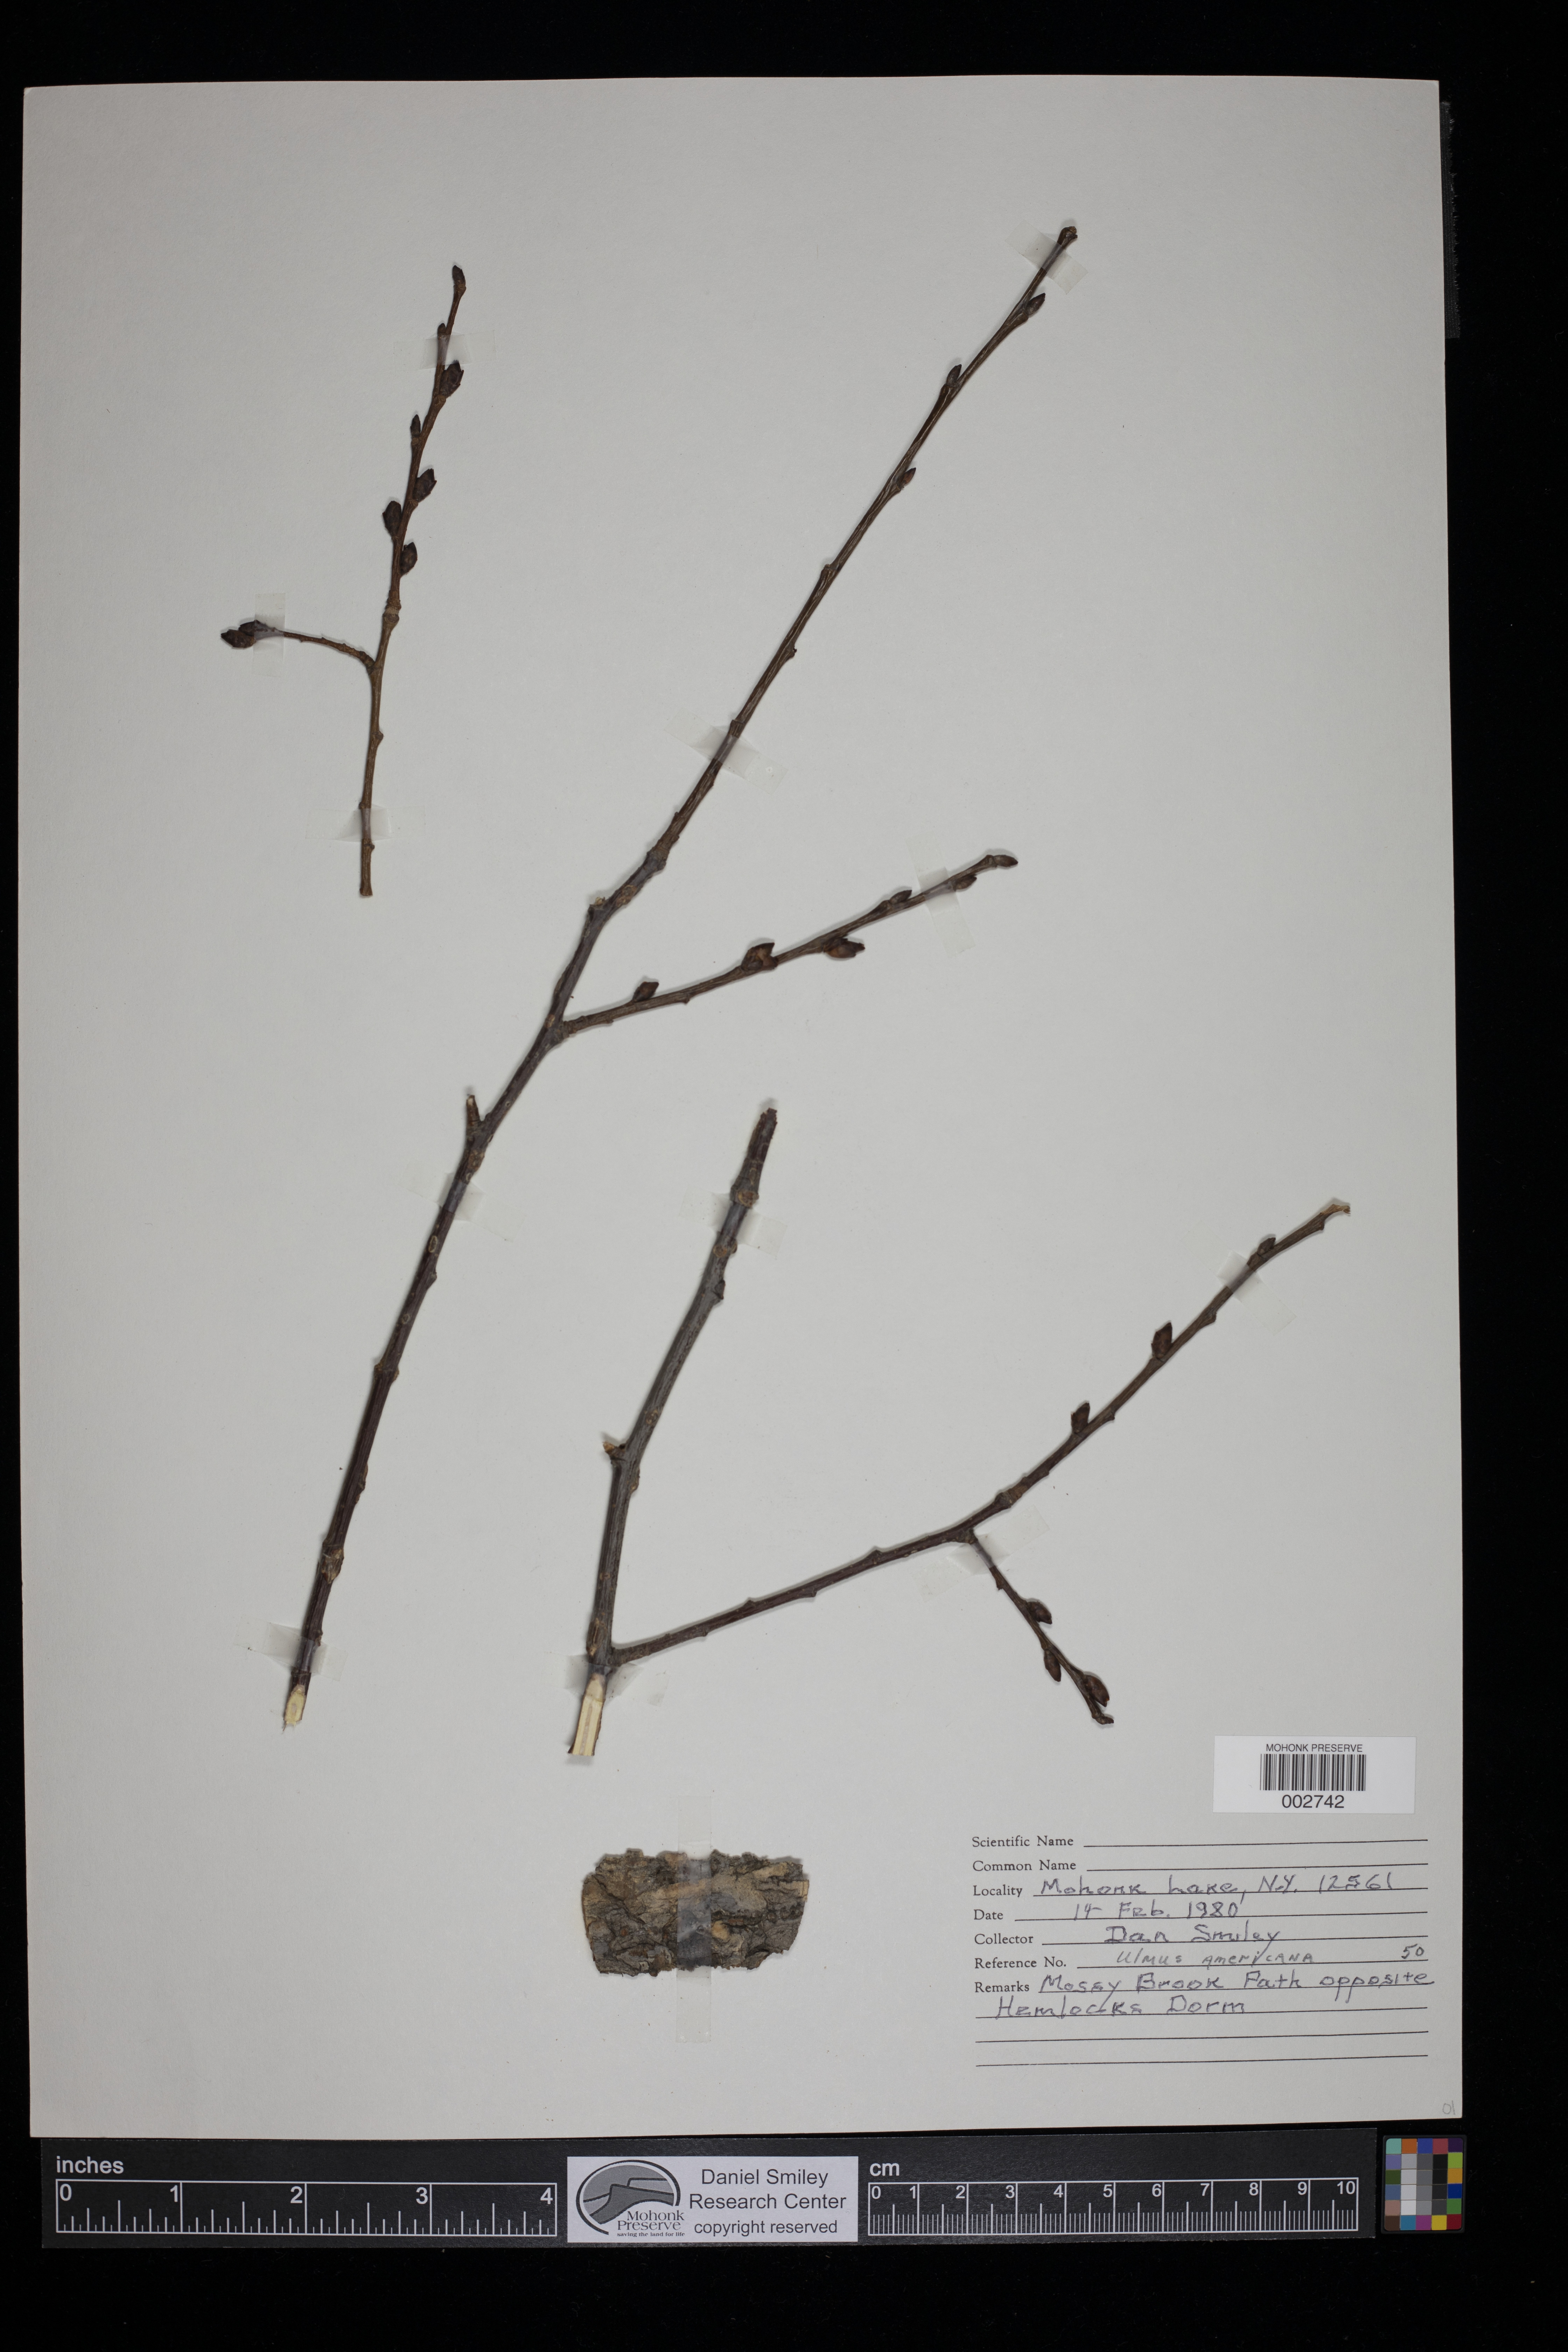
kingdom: Plantae
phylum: Tracheophyta
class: Magnoliopsida
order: Rosales
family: Ulmaceae
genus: Ulmus
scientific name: Ulmus americana
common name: American elm
